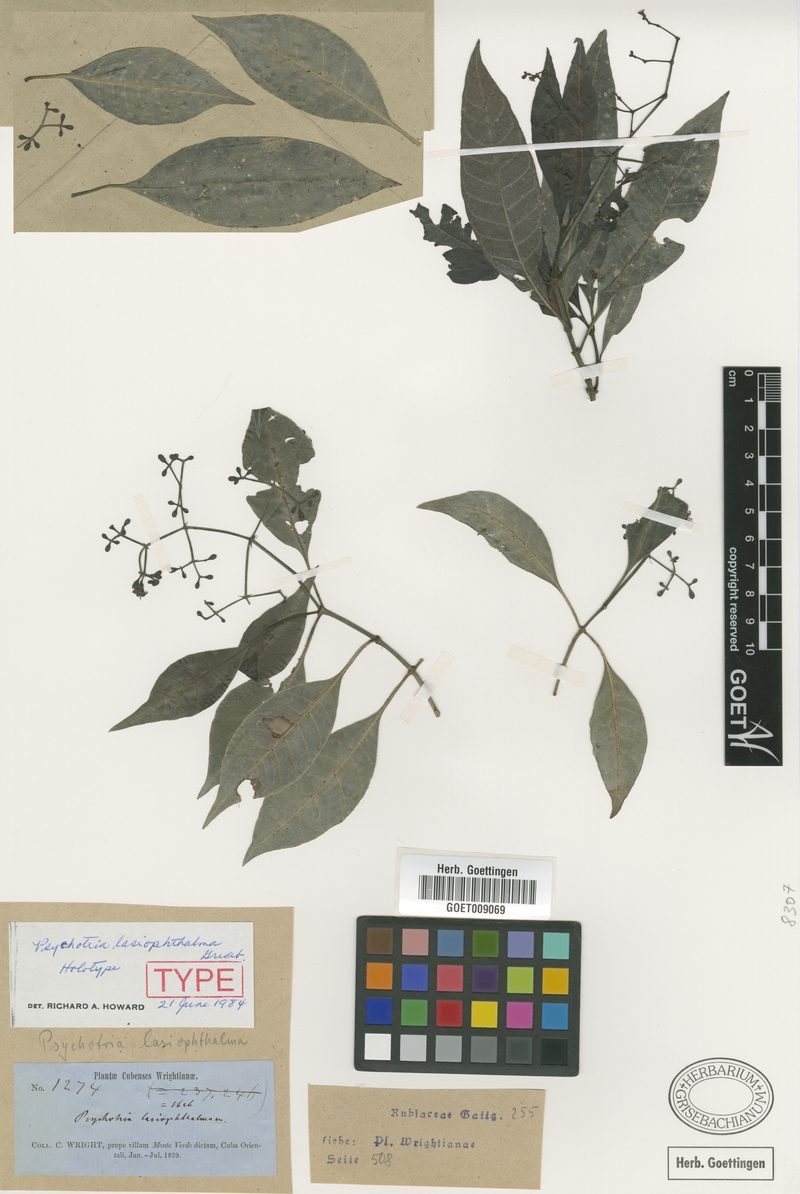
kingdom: Plantae
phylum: Tracheophyta
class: Magnoliopsida
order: Gentianales
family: Rubiaceae
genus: Psychotria
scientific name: Psychotria lasiophthalma
